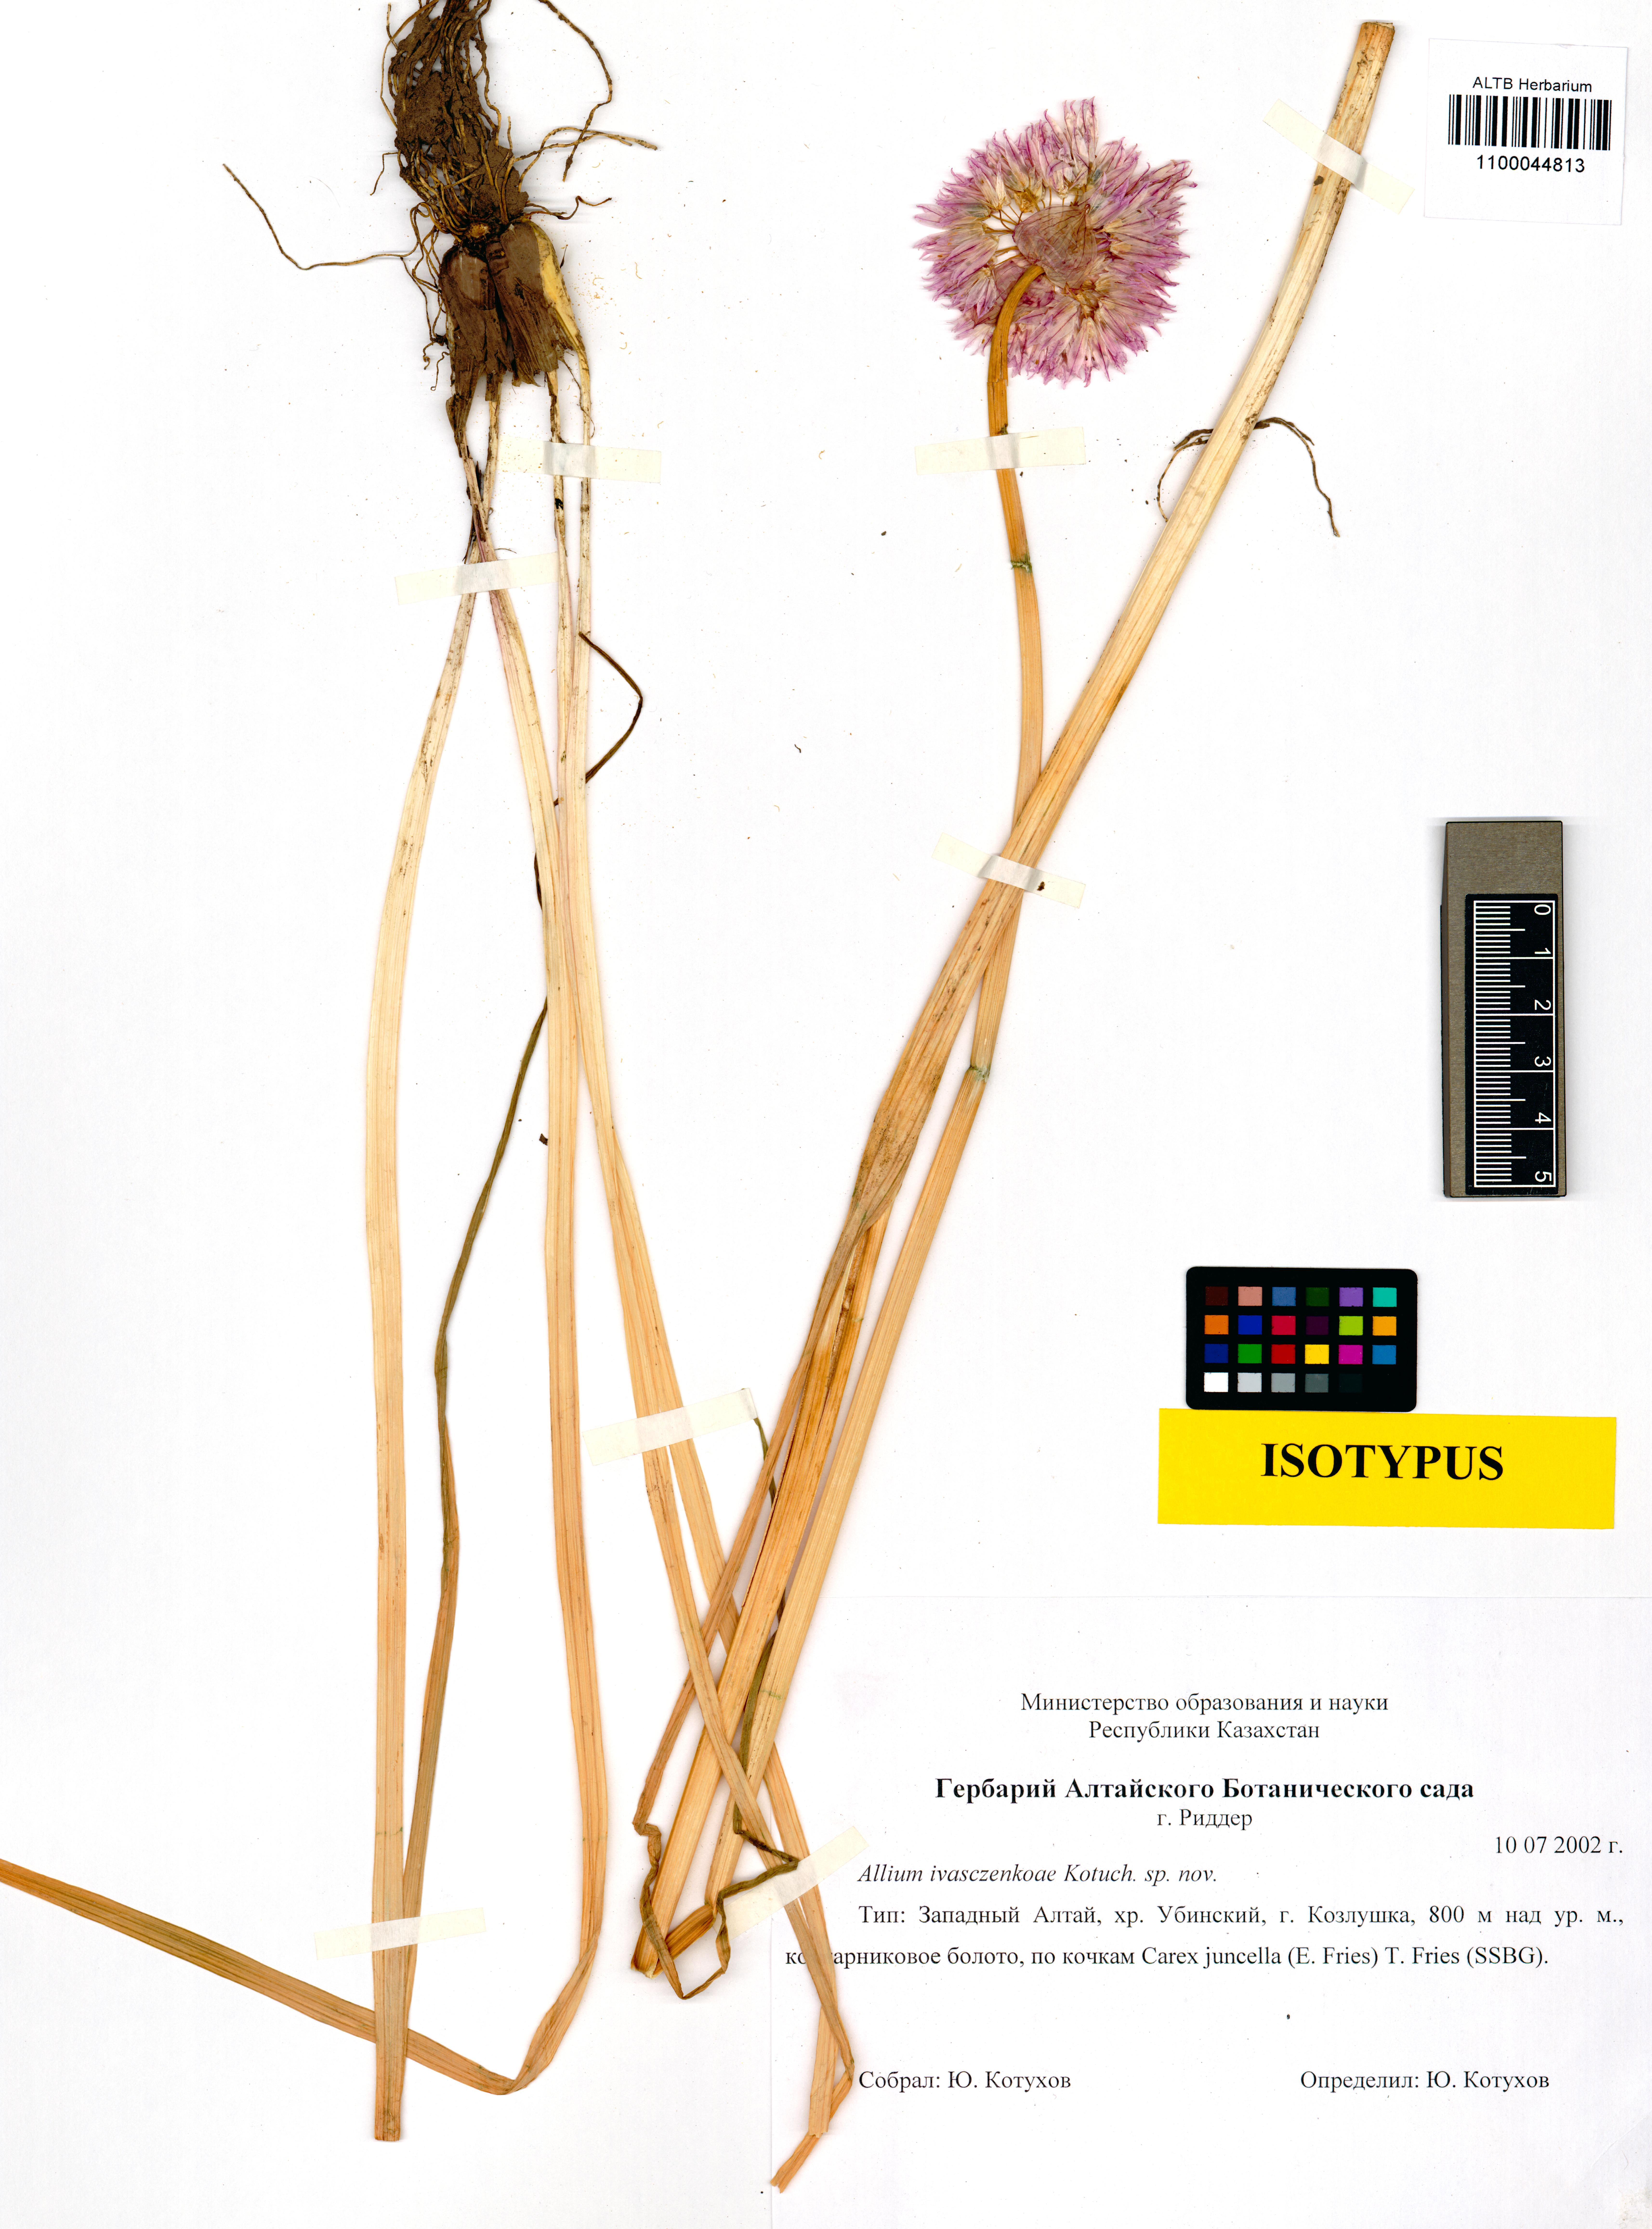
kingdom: Plantae
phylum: Tracheophyta
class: Liliopsida
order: Asparagales
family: Amaryllidaceae
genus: Allium
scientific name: Allium ivasczenkoae
